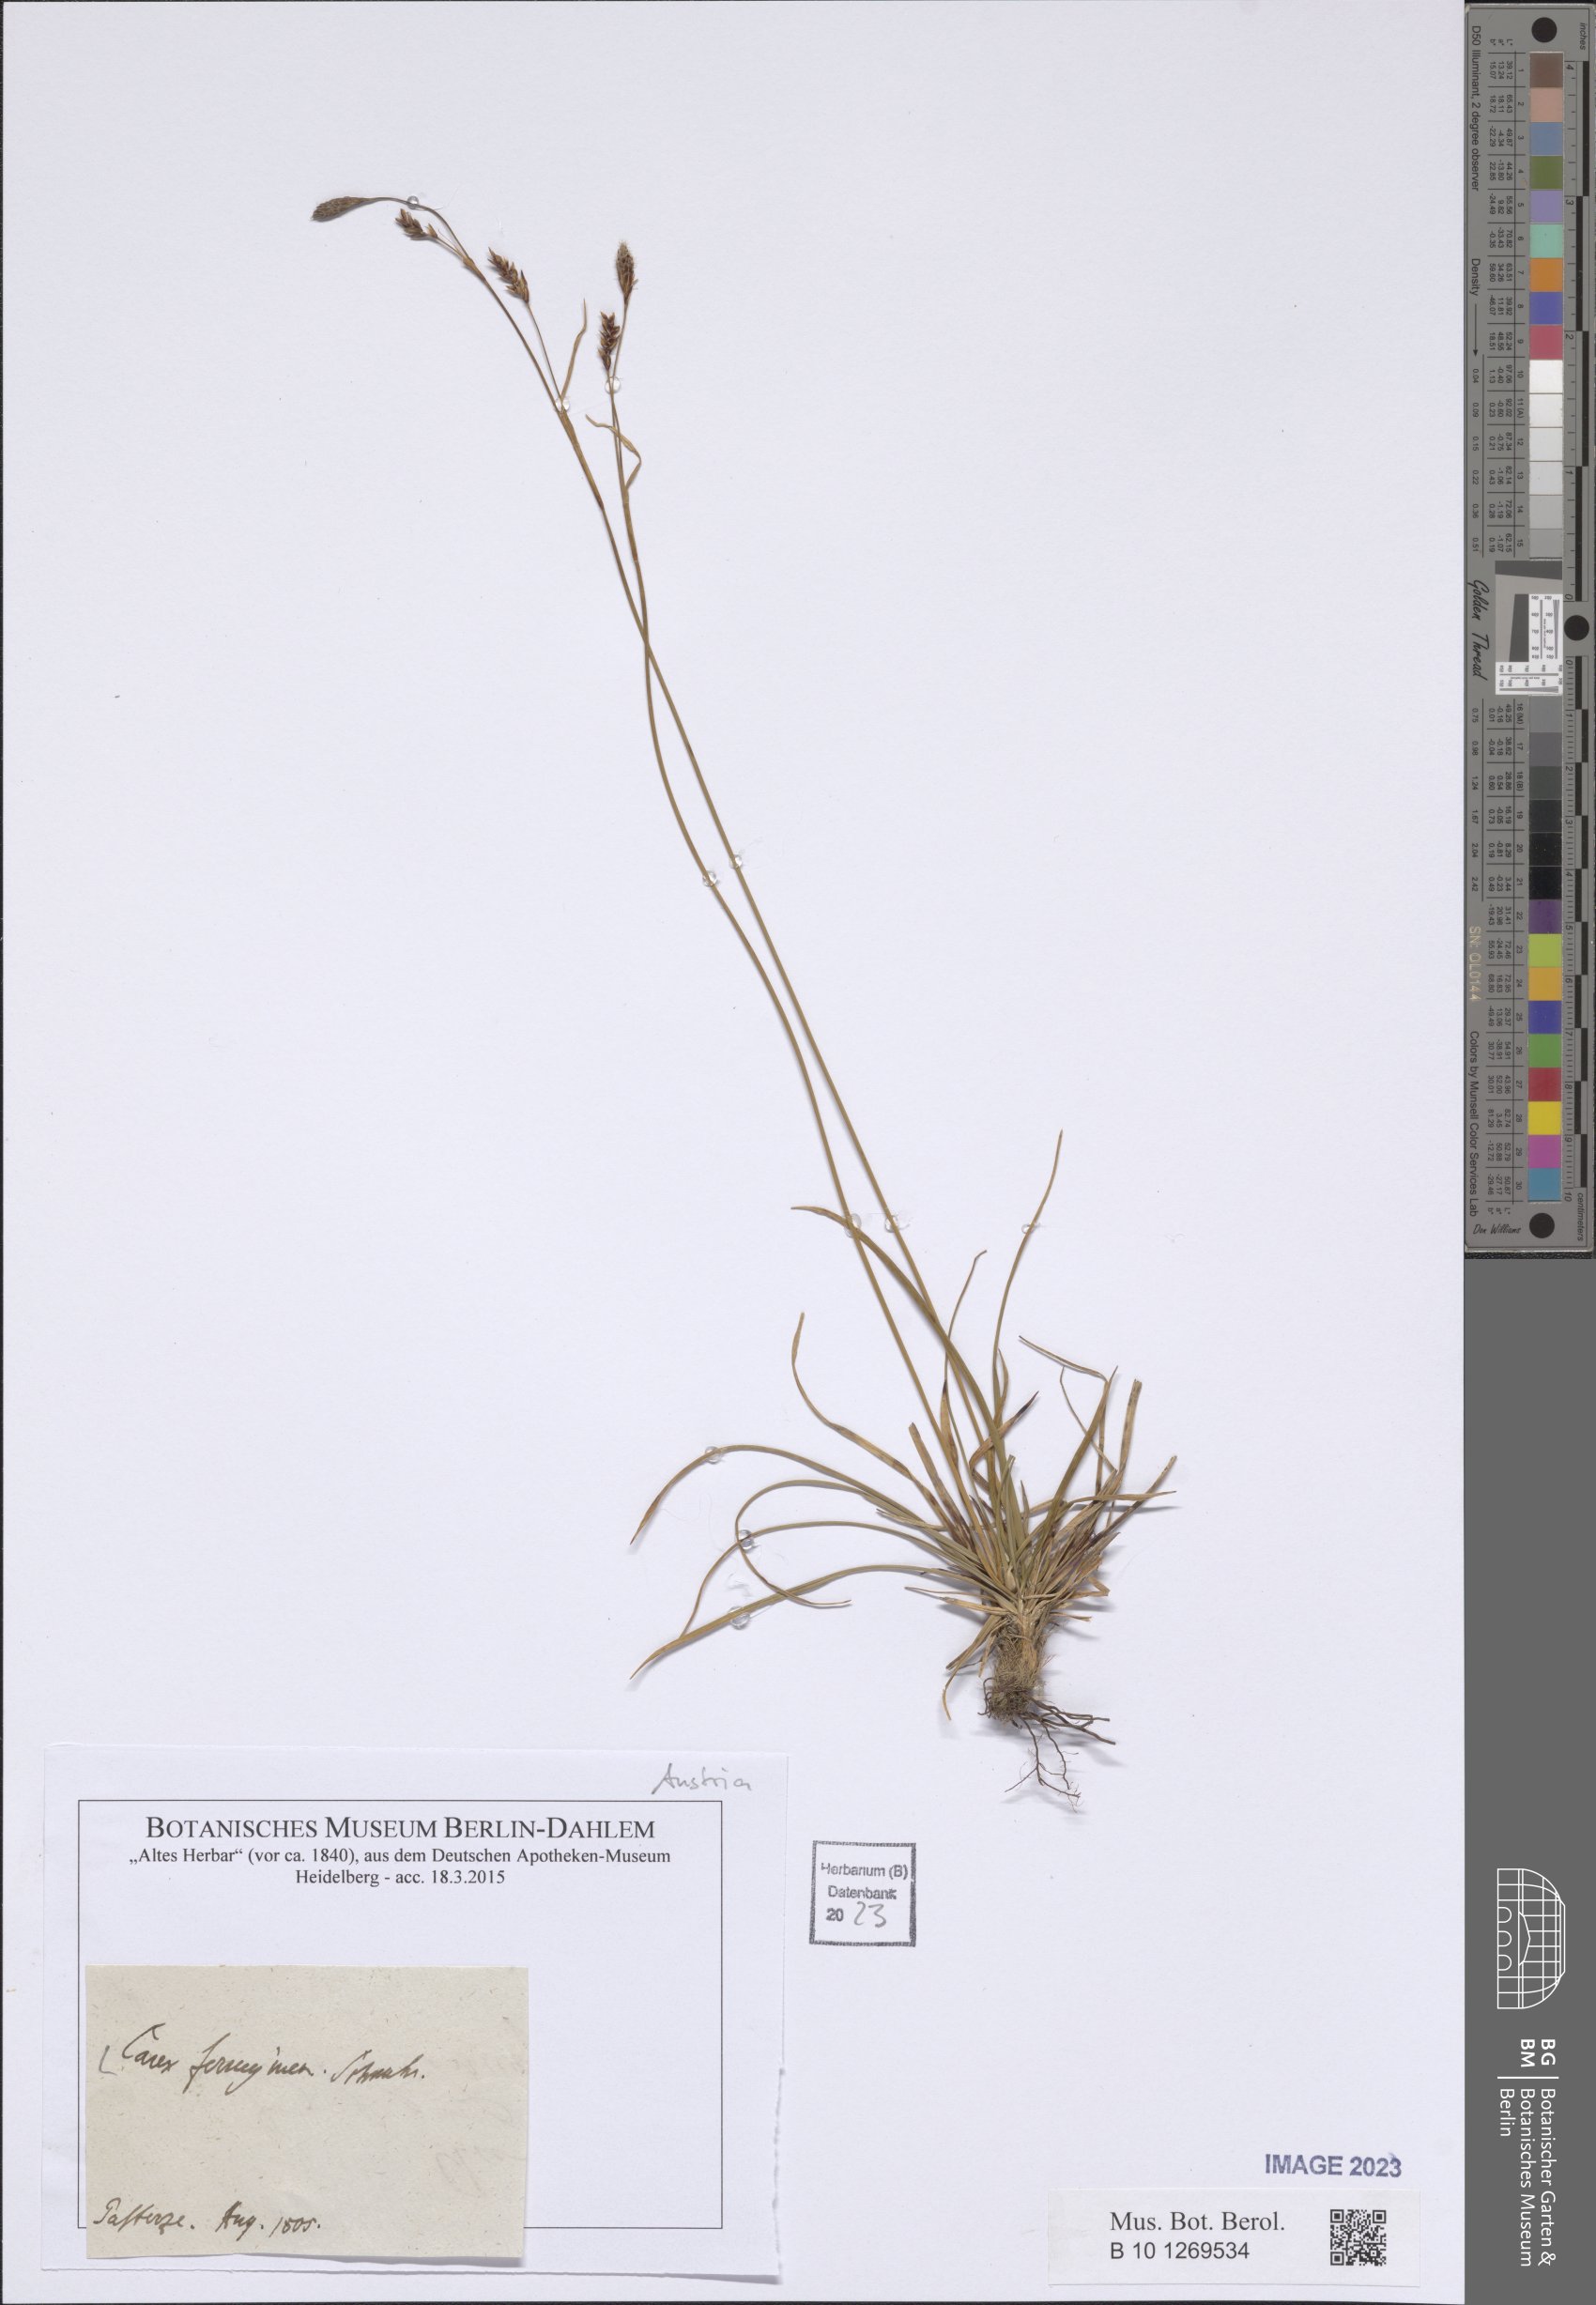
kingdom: Plantae
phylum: Tracheophyta
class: Liliopsida
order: Poales
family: Cyperaceae
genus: Carex
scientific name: Carex ferruginea
